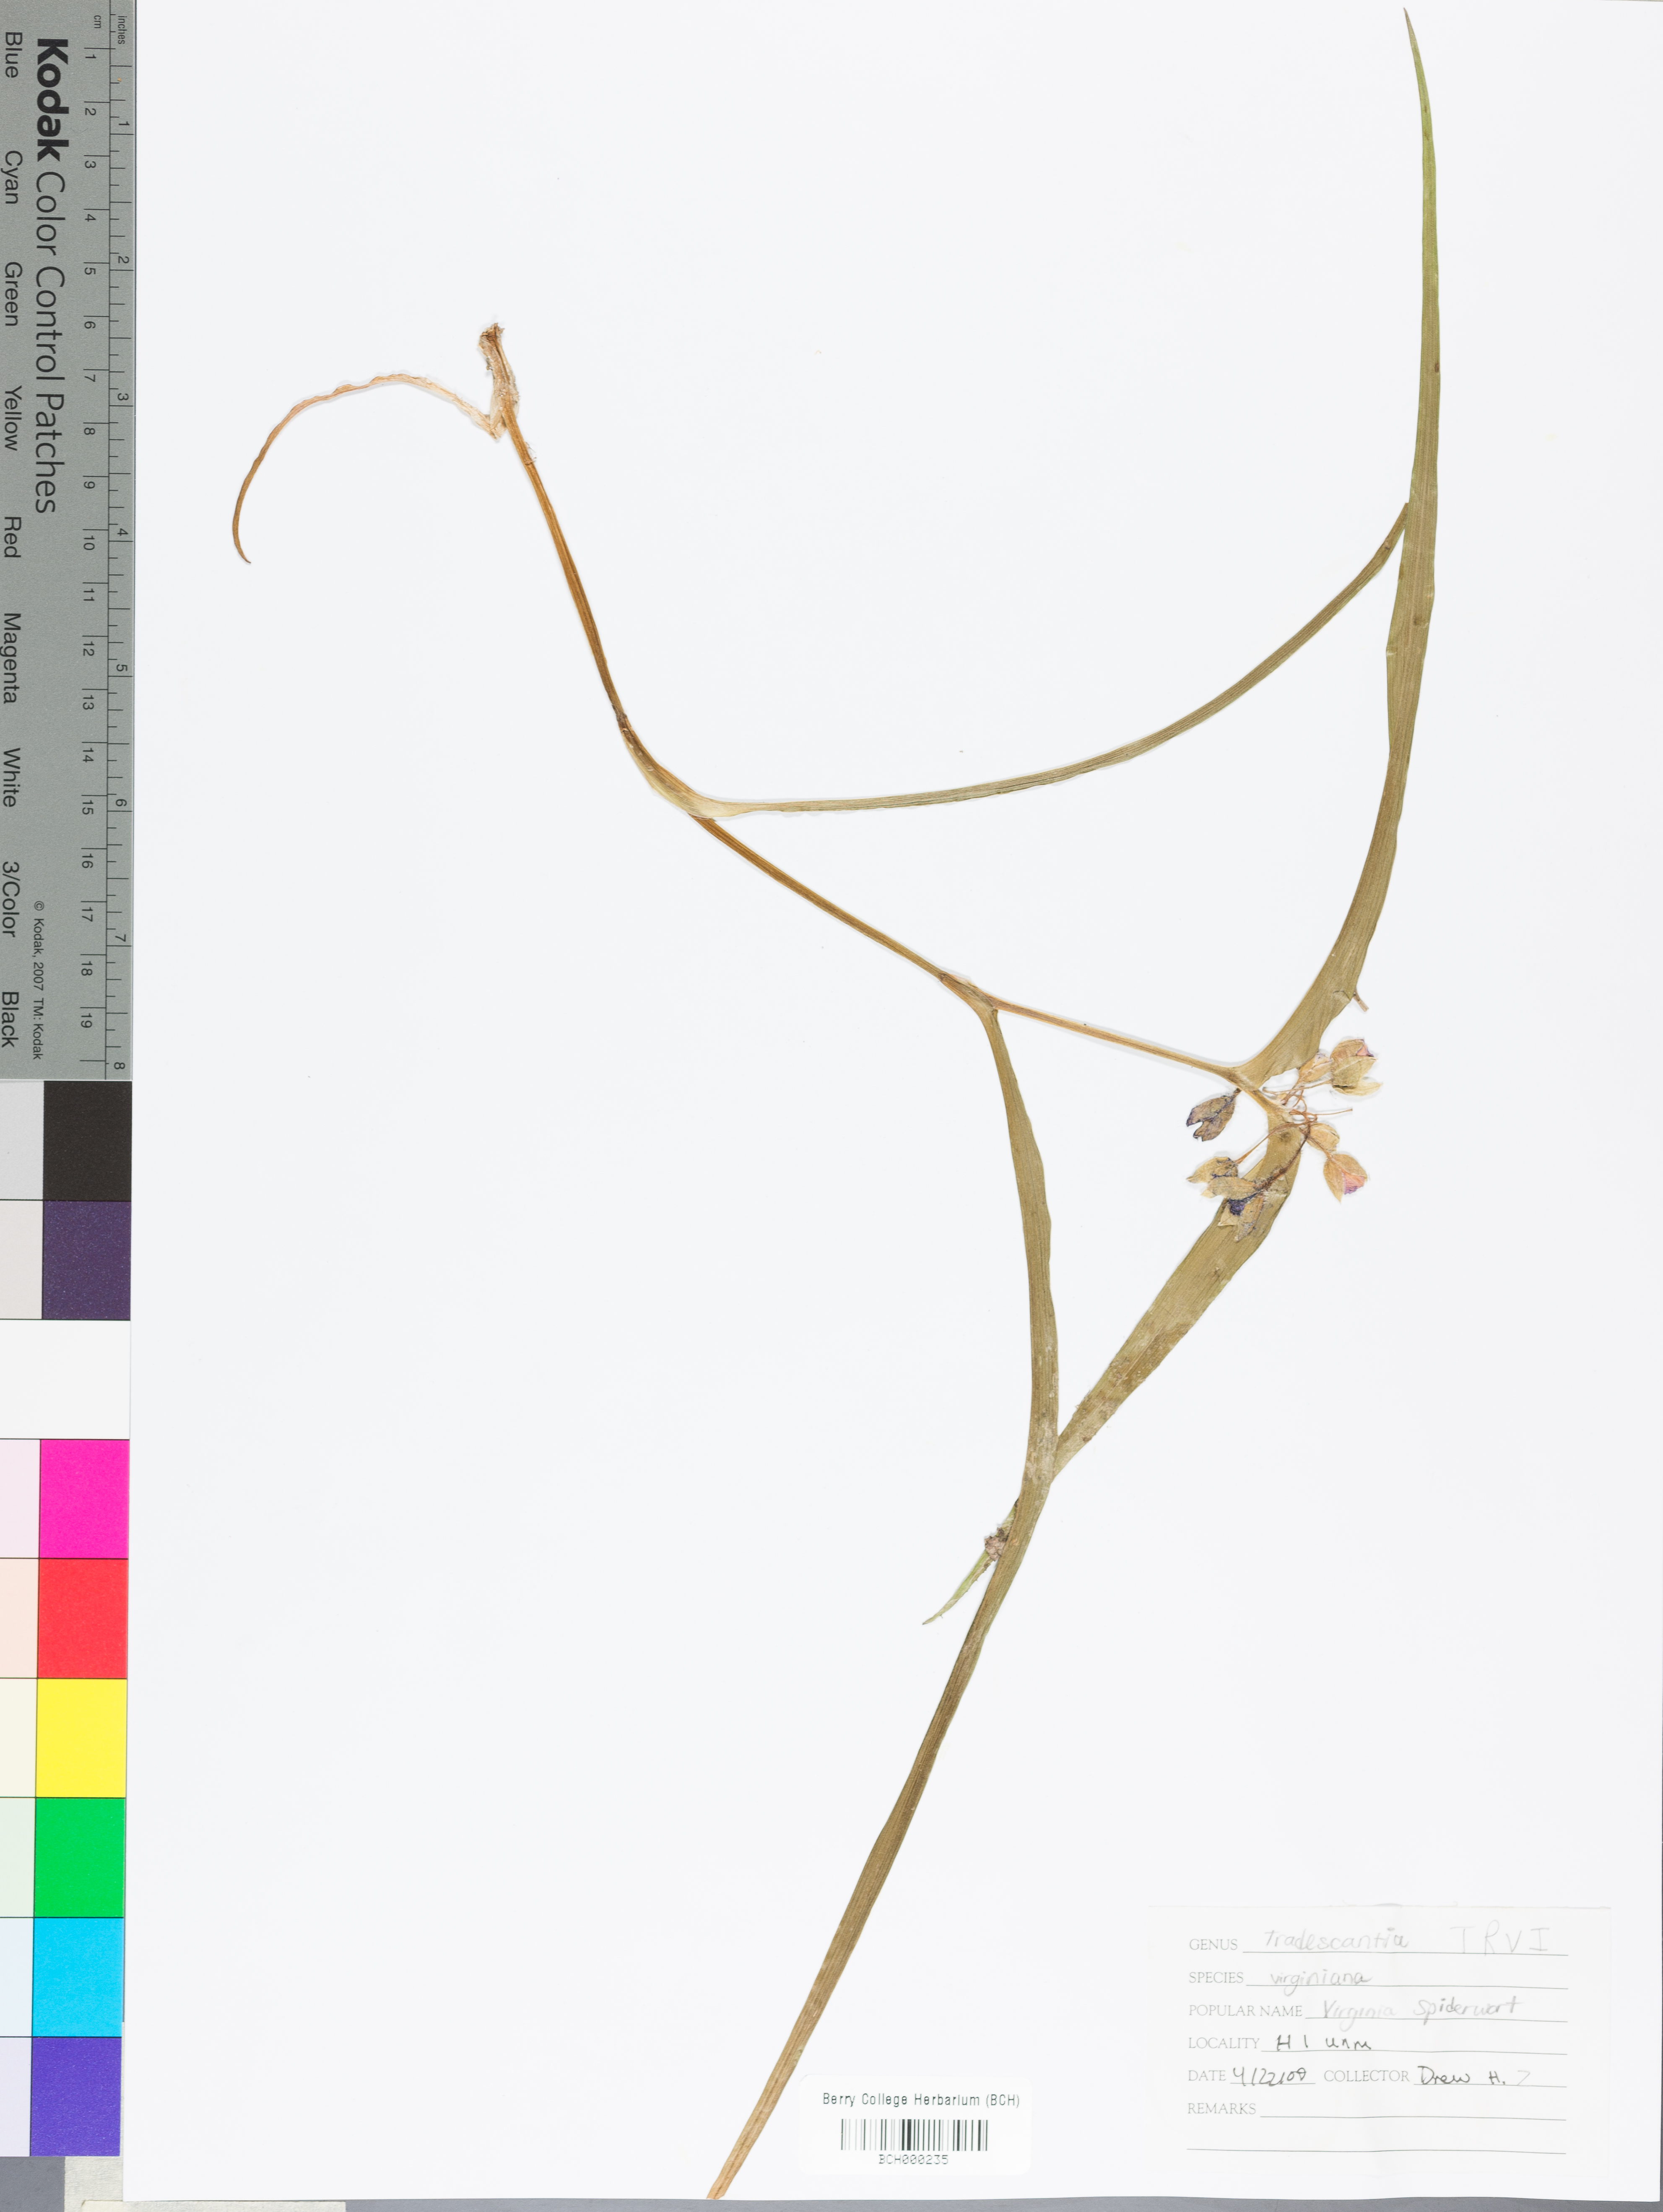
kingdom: Plantae
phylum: Tracheophyta
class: Liliopsida
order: Commelinales
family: Commelinaceae
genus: Tradescantia
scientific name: Tradescantia virginiana
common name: Spiderwort
